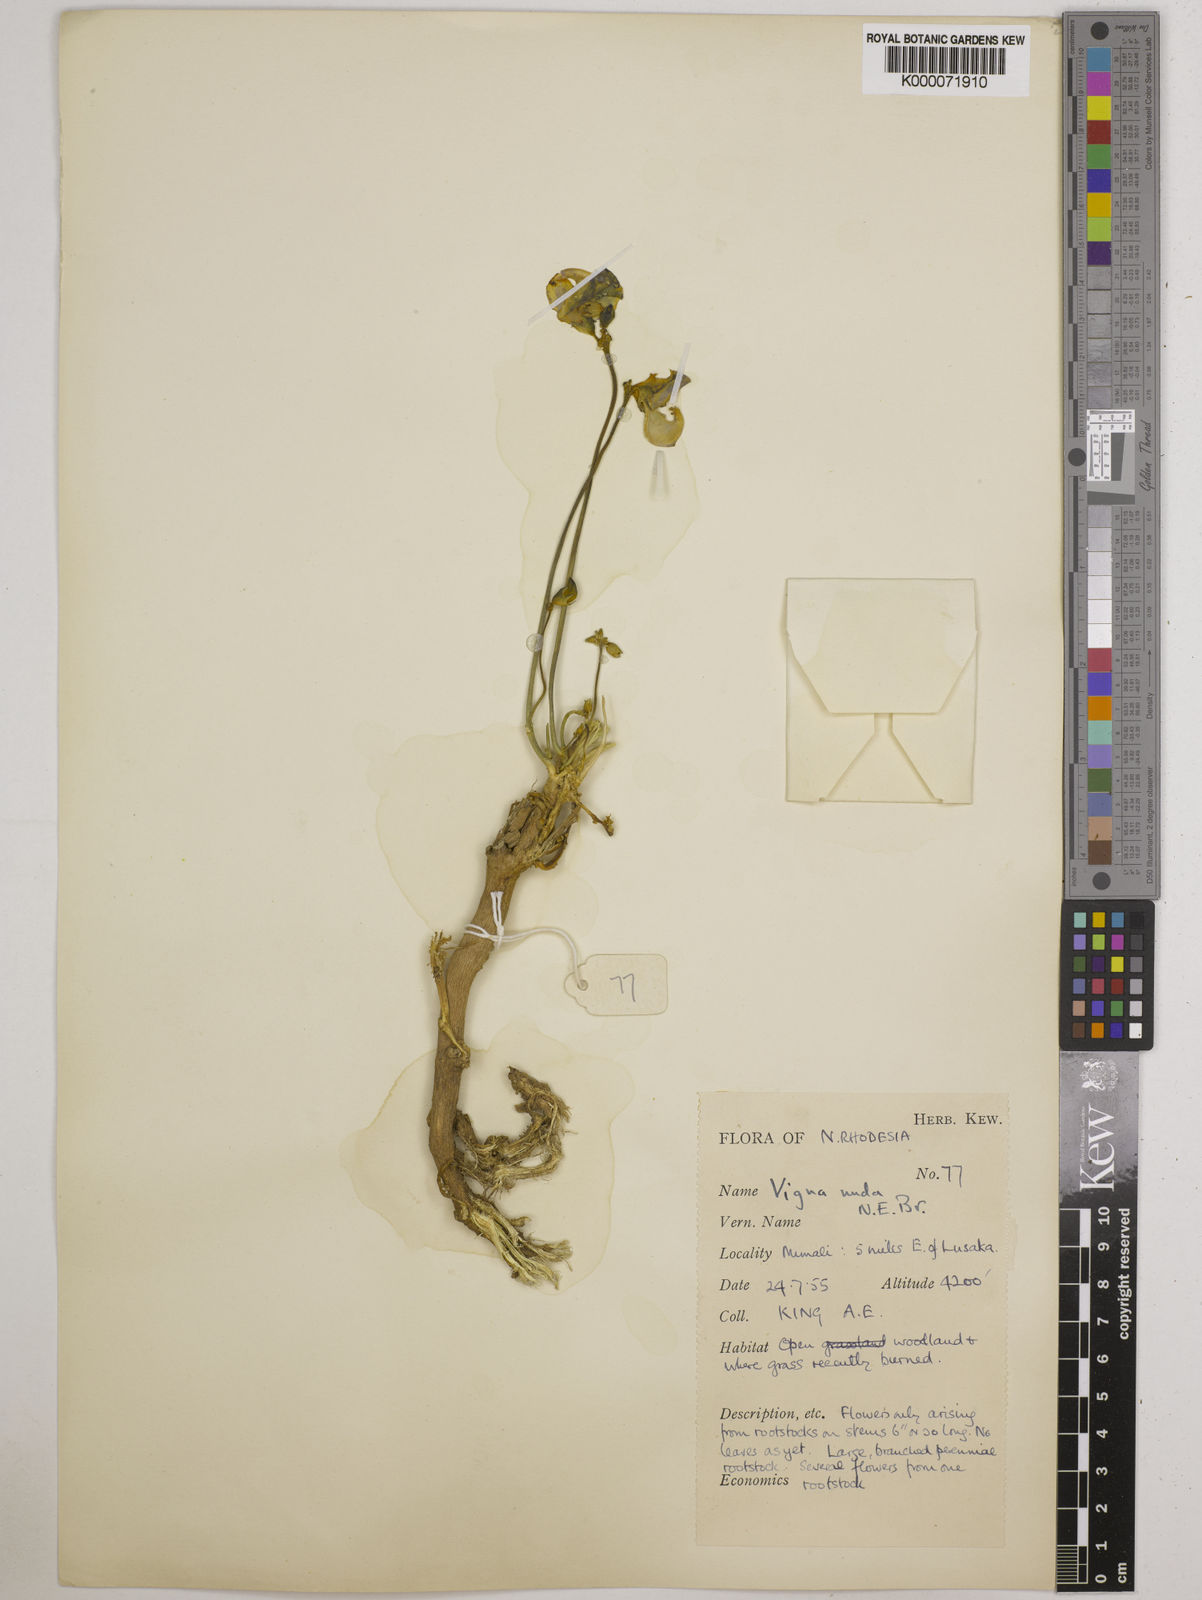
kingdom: Plantae
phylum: Tracheophyta
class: Magnoliopsida
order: Fabales
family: Fabaceae
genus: Vigna
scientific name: Vigna antunesii
